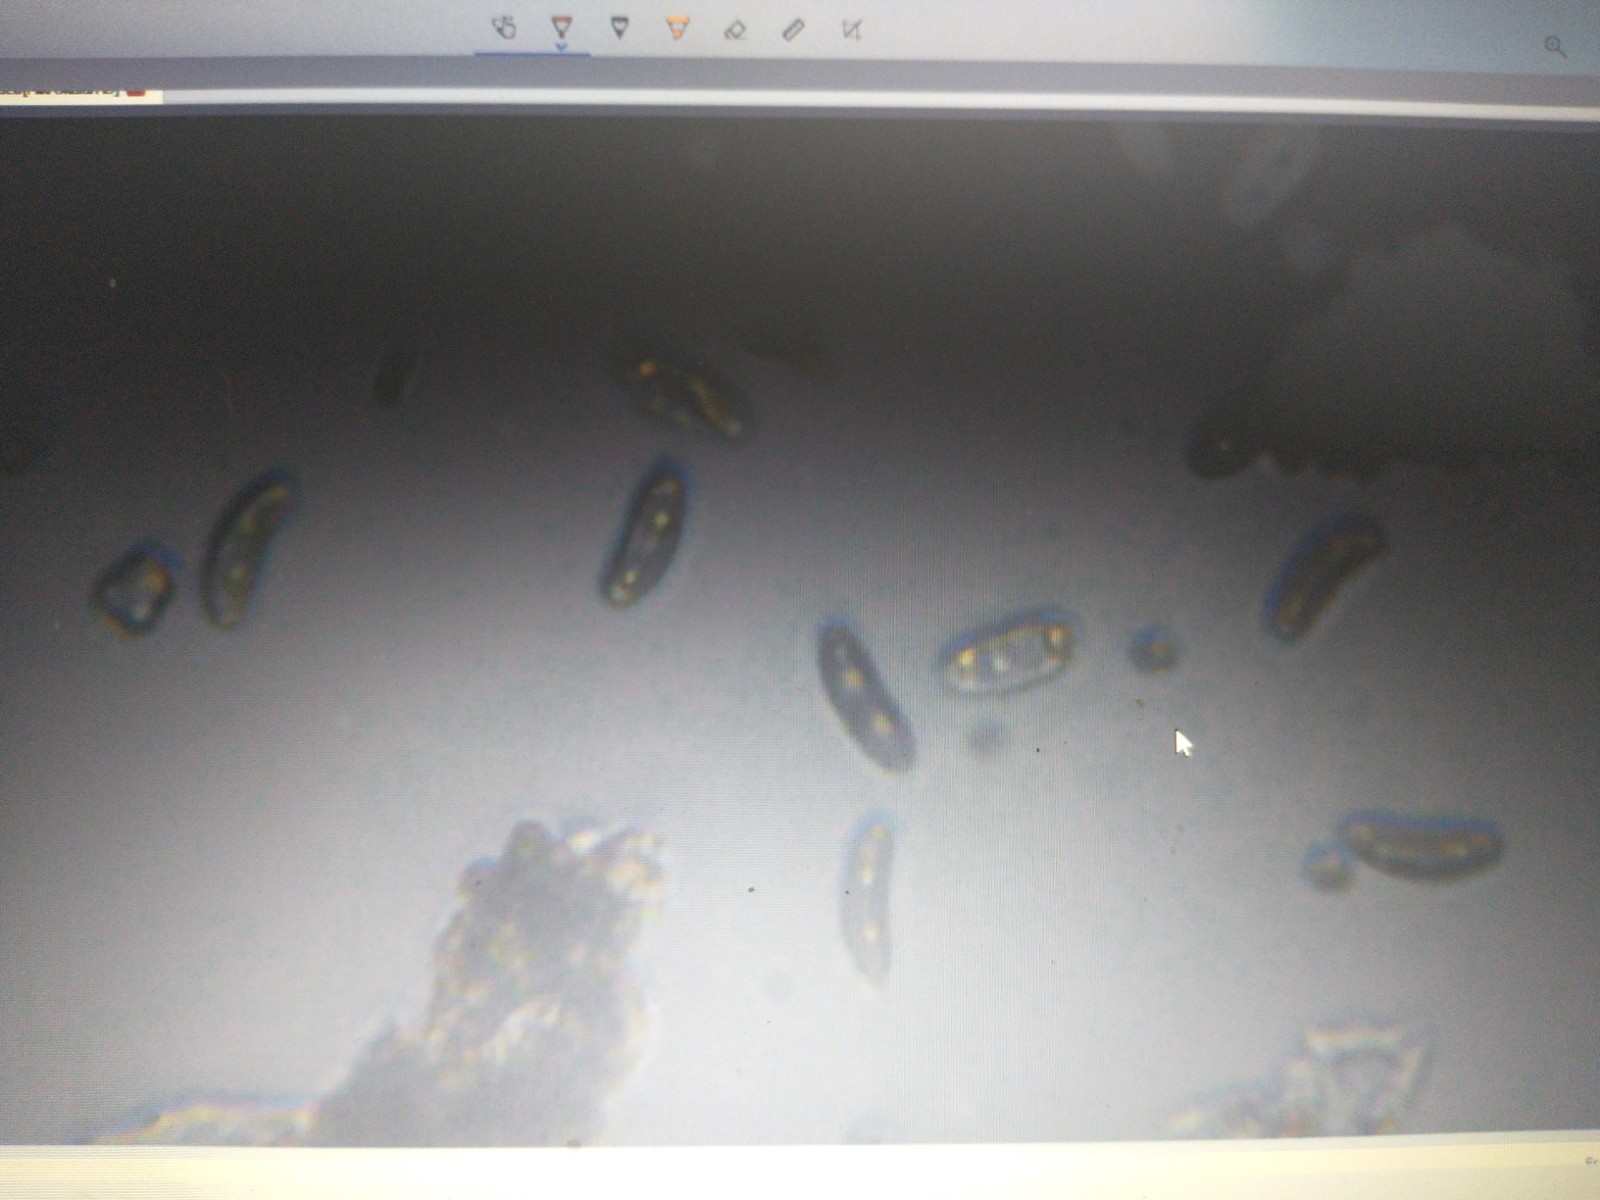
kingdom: Fungi
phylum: Ascomycota
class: Sordariomycetes
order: Xylariales
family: Xylariaceae
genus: Nemania
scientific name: Nemania
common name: kuldyne
